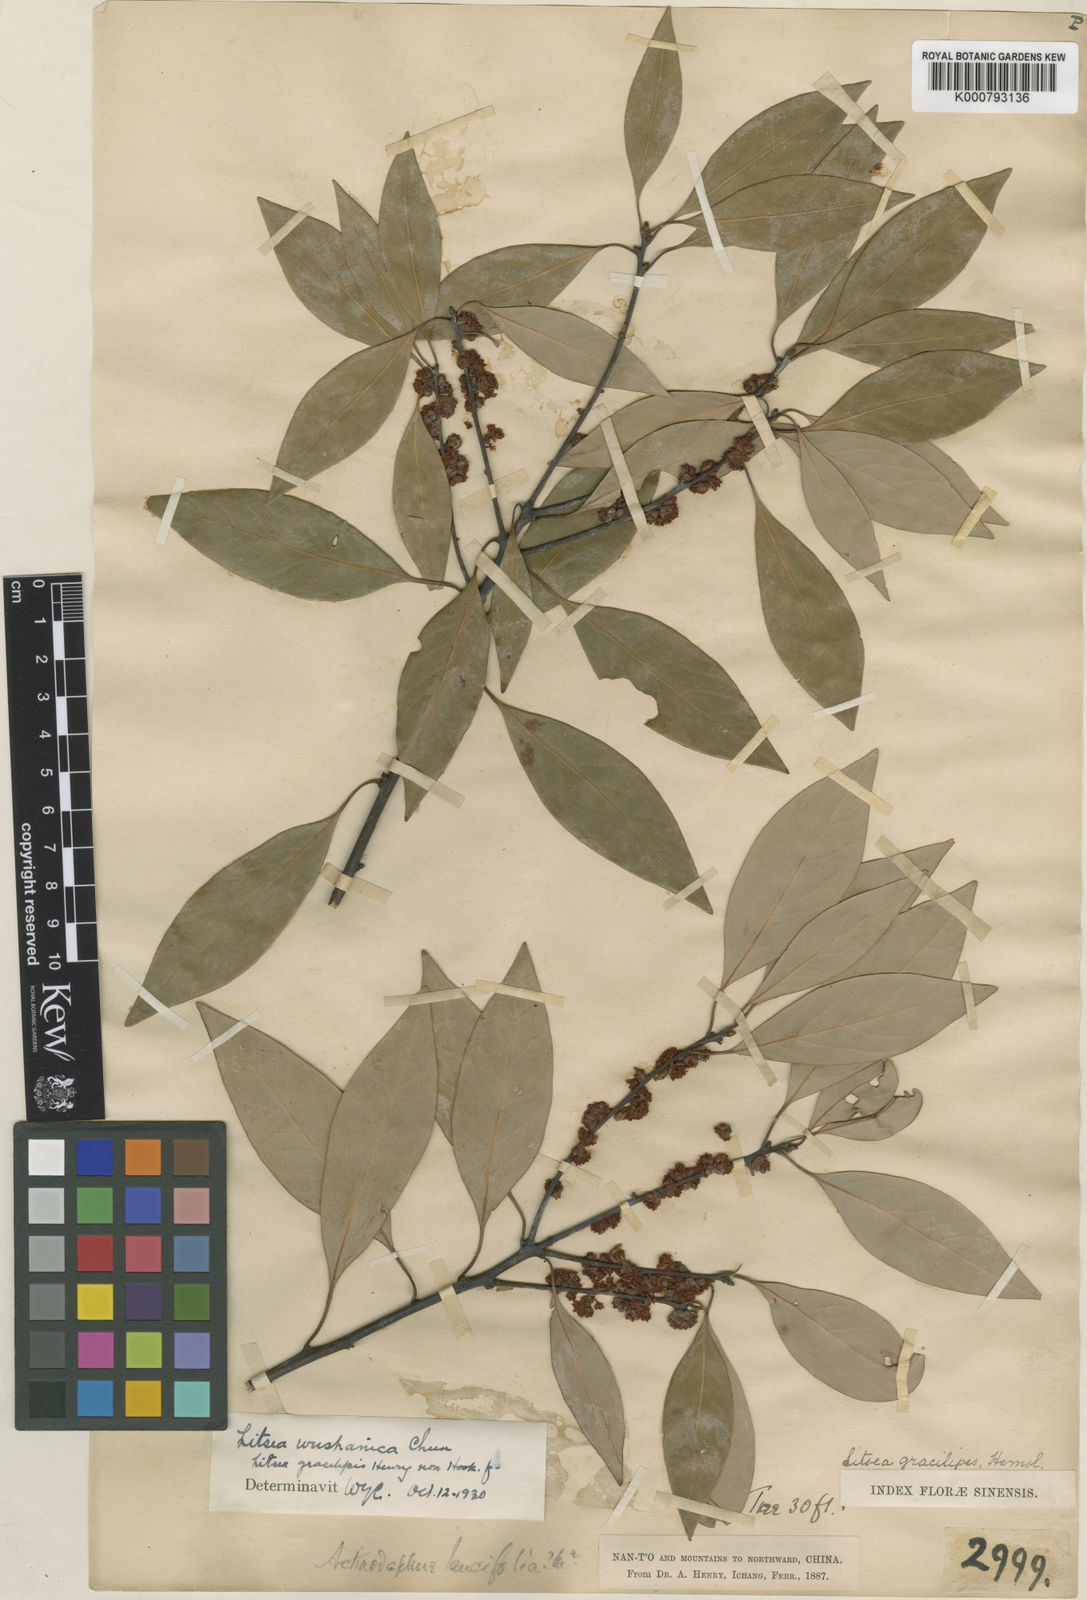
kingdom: Plantae
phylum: Tracheophyta
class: Magnoliopsida
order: Laurales
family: Lauraceae
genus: Neolitsea
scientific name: Neolitsea wushanica
